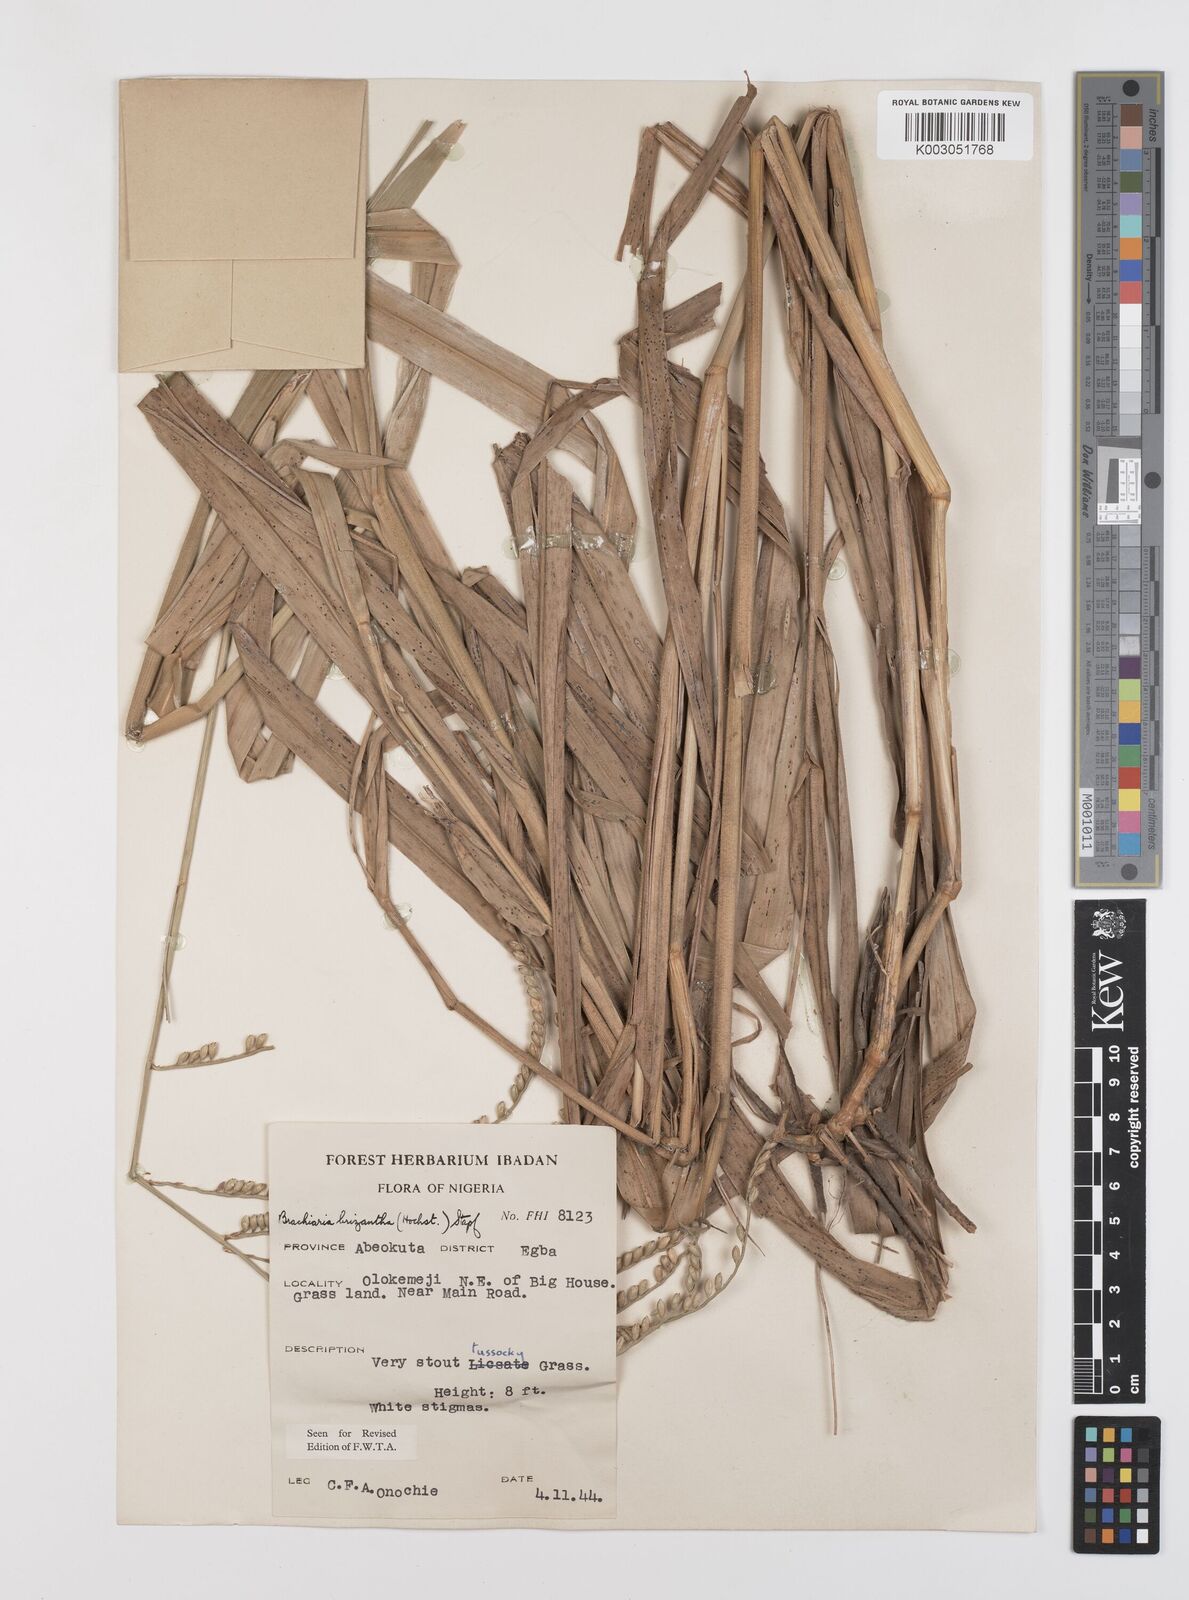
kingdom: Plantae
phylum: Tracheophyta
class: Liliopsida
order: Poales
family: Poaceae
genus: Urochloa
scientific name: Urochloa brizantha
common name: Palisade signalgrass
